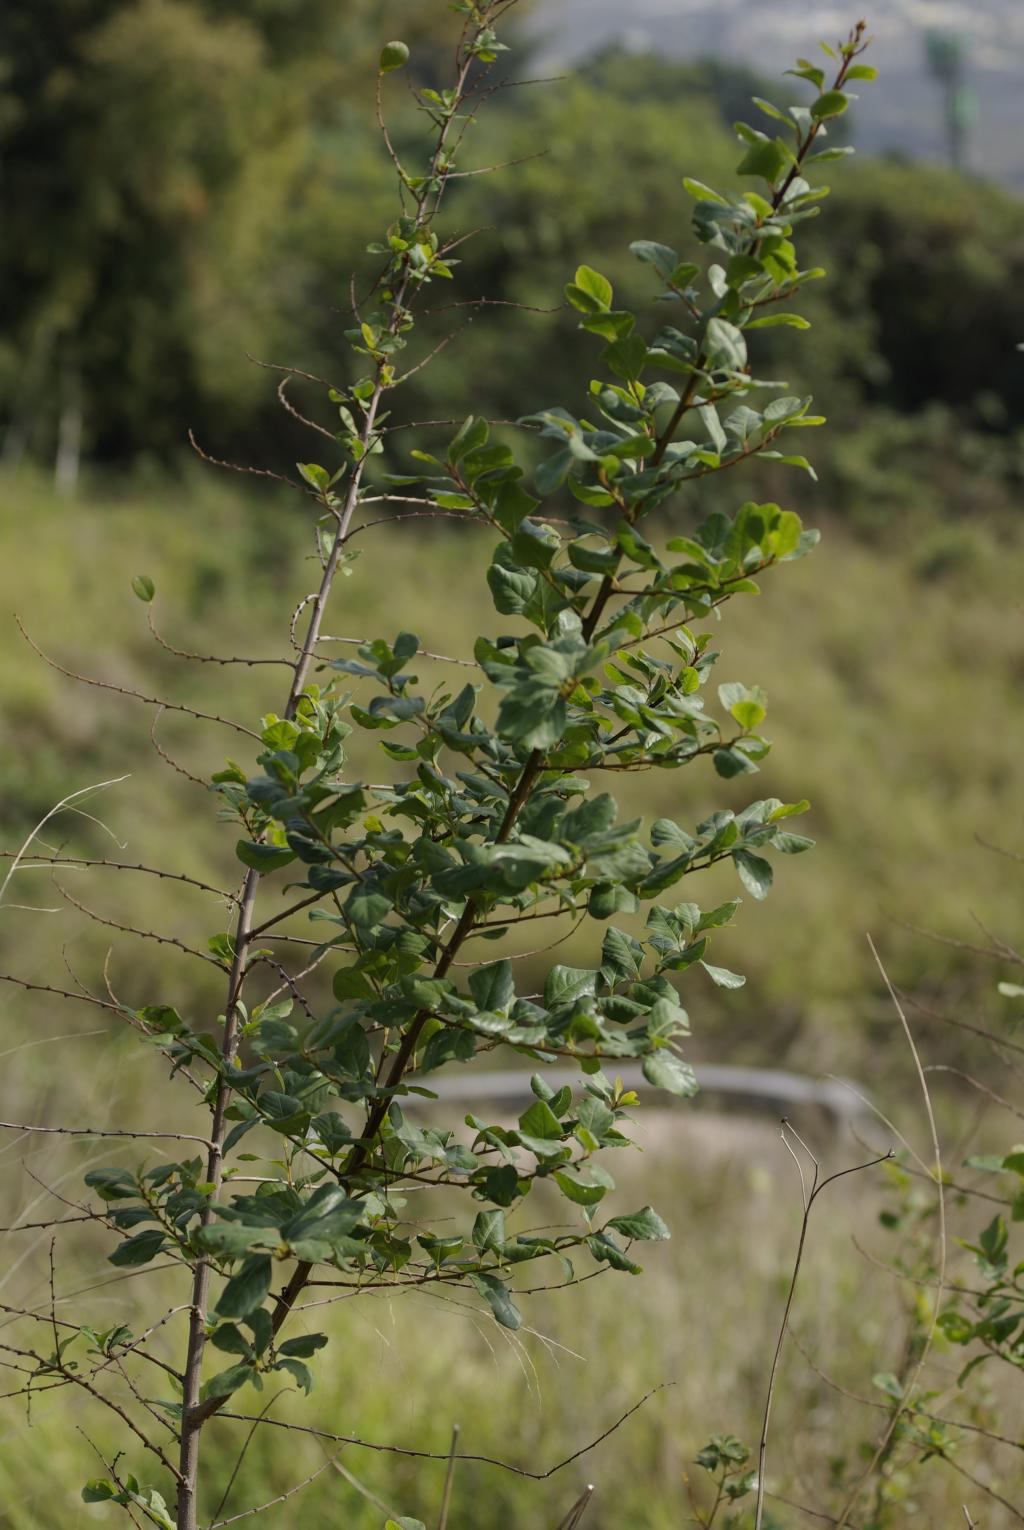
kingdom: Plantae
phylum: Tracheophyta
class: Magnoliopsida
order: Malpighiales
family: Phyllanthaceae
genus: Flueggea
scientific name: Flueggea virosa
